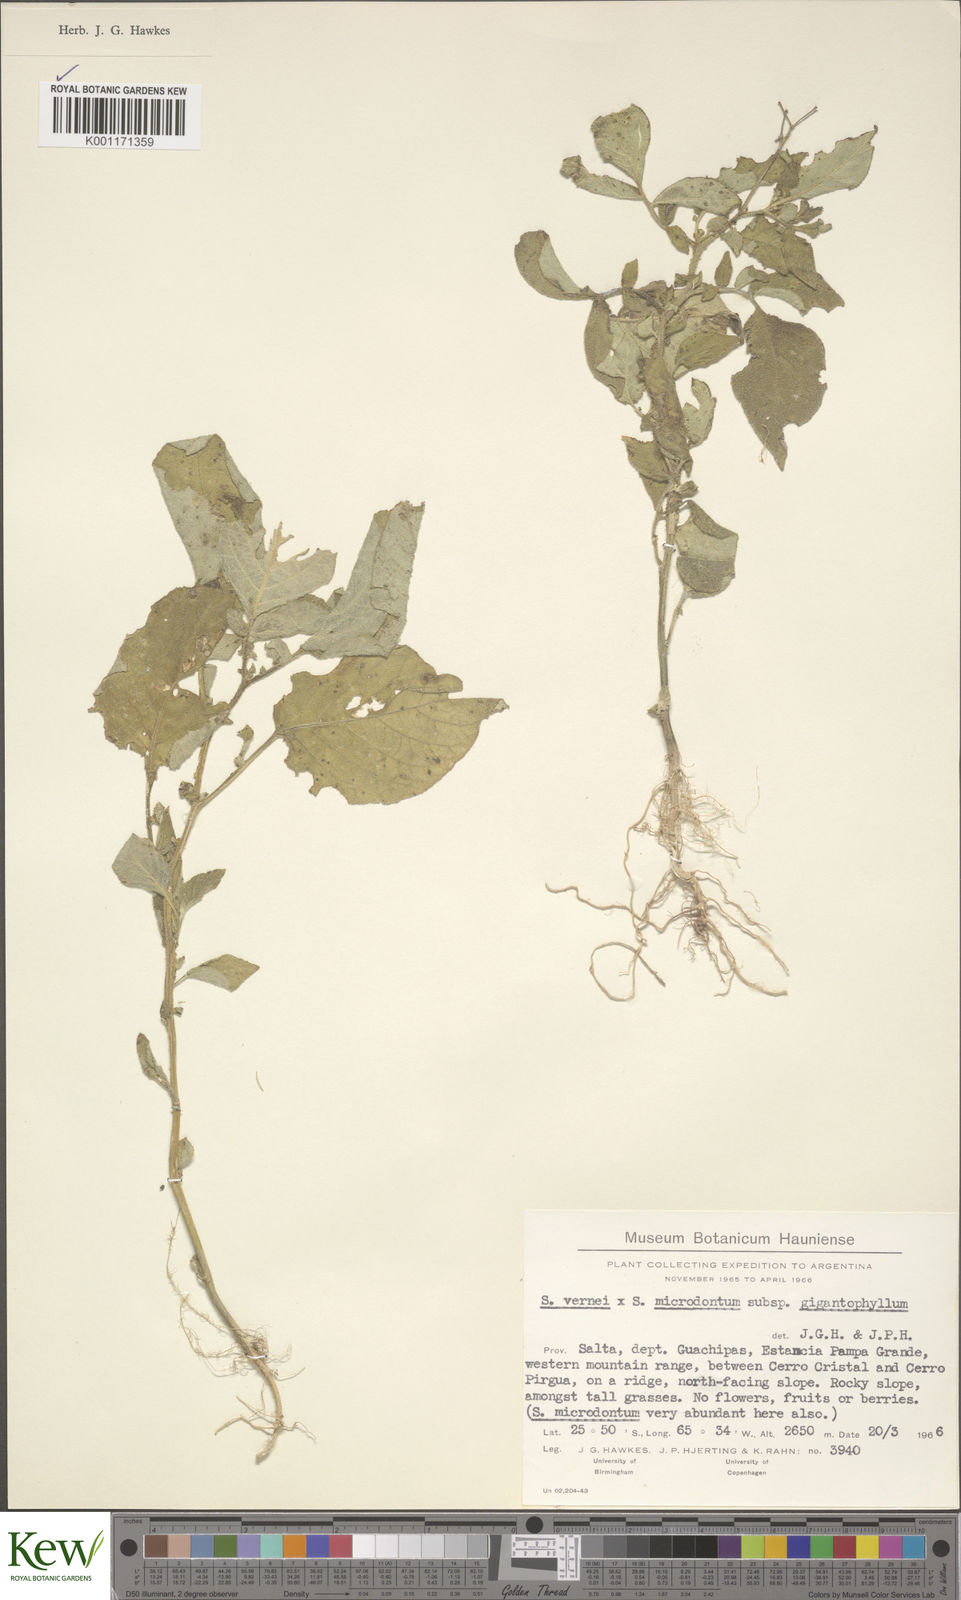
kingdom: Plantae
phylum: Tracheophyta
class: Magnoliopsida
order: Solanales
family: Solanaceae
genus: Solanum
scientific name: Solanum microdontum
